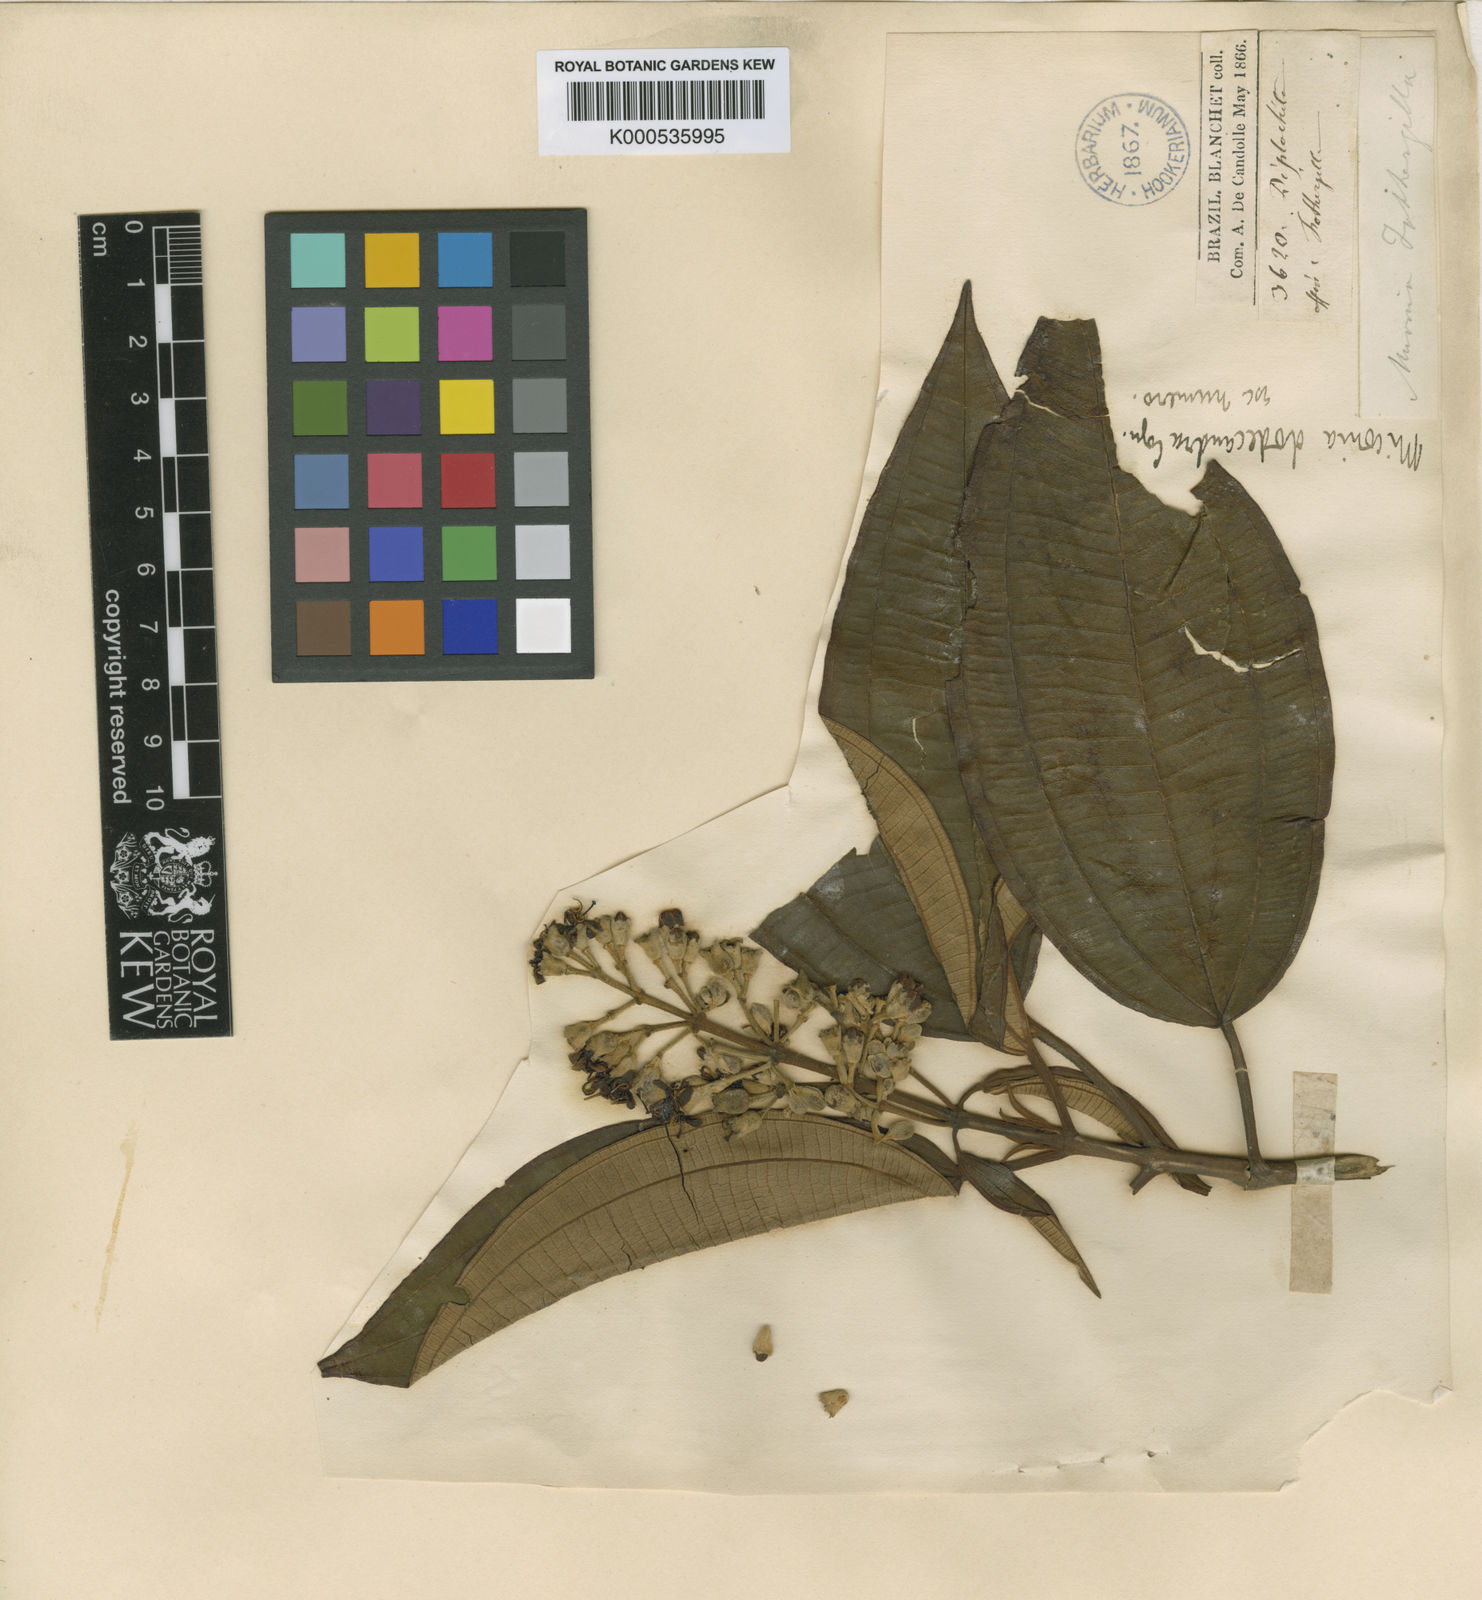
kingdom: Plantae
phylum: Tracheophyta
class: Magnoliopsida
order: Myrtales
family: Melastomataceae
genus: Miconia
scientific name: Miconia dodecandra
